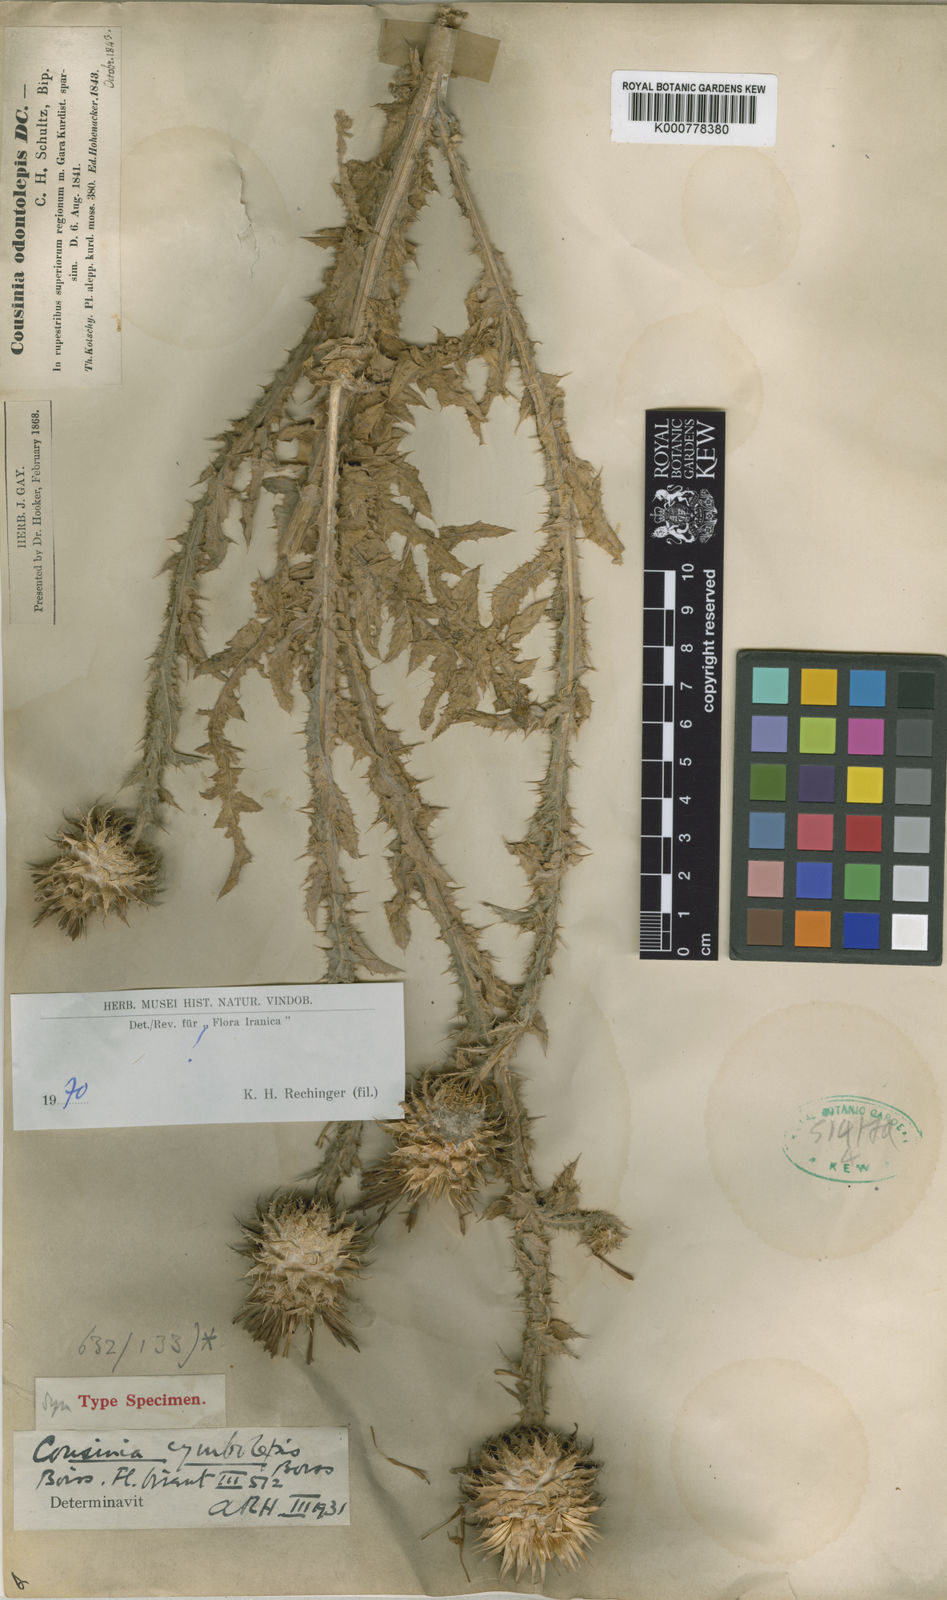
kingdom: Plantae
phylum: Tracheophyta
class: Magnoliopsida
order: Asterales
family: Asteraceae
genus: Cousinia
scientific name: Cousinia odontolepis
